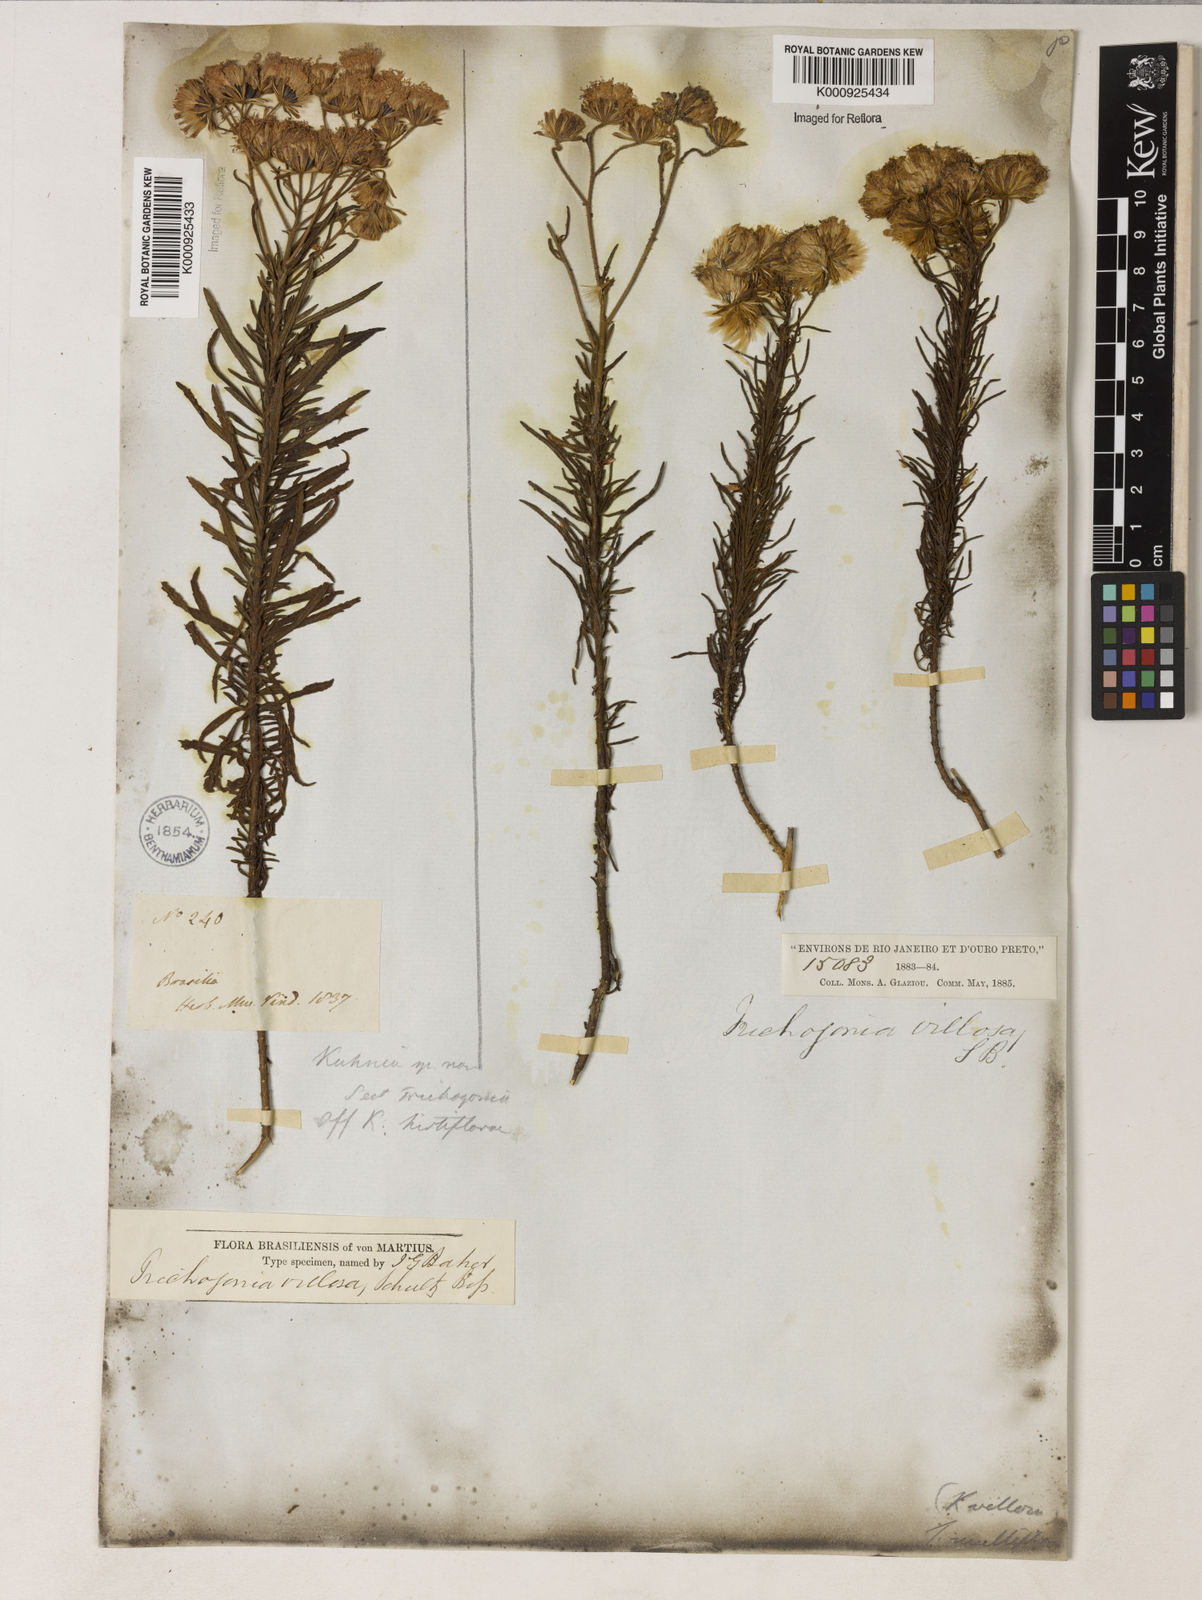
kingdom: Plantae
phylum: Tracheophyta
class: Magnoliopsida
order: Asterales
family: Asteraceae
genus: Trichogonia
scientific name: Trichogonia villosa
